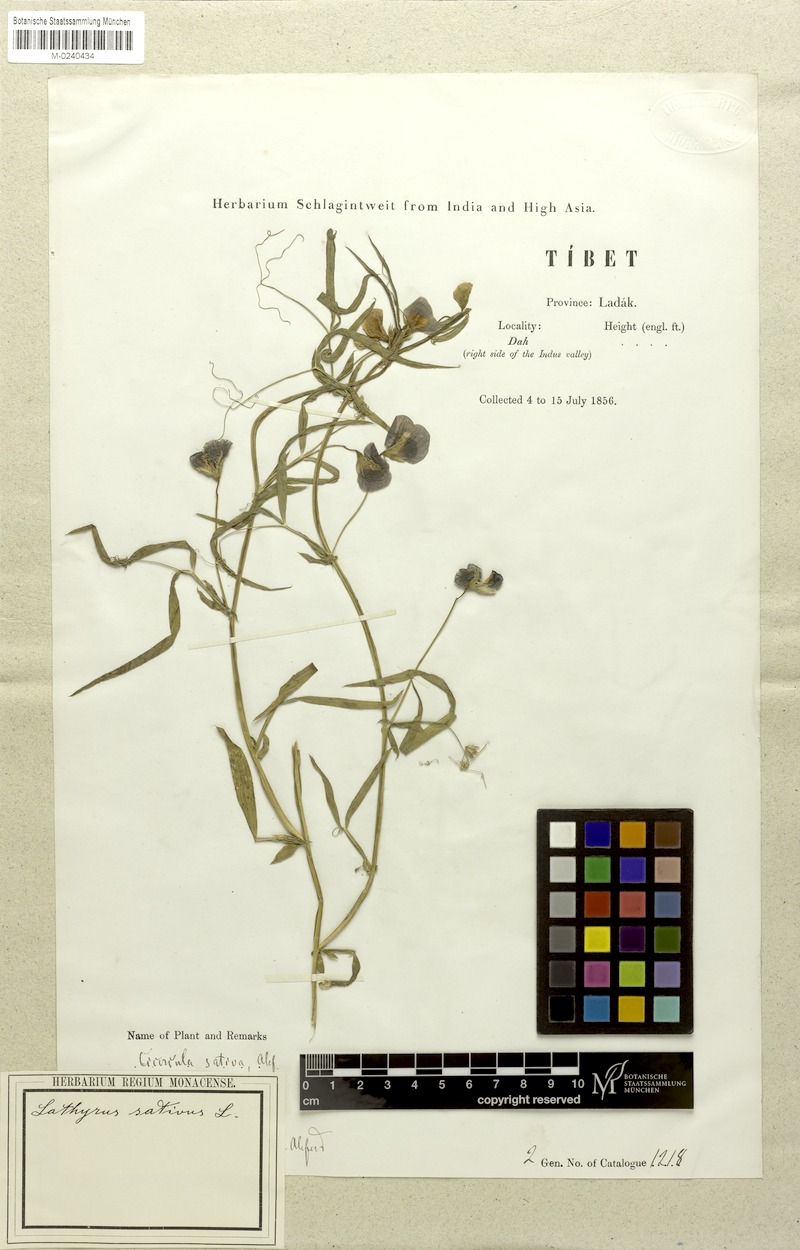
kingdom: Plantae
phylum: Tracheophyta
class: Magnoliopsida
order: Fabales
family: Fabaceae
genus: Lathyrus
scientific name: Lathyrus sativus
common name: Indian pea
